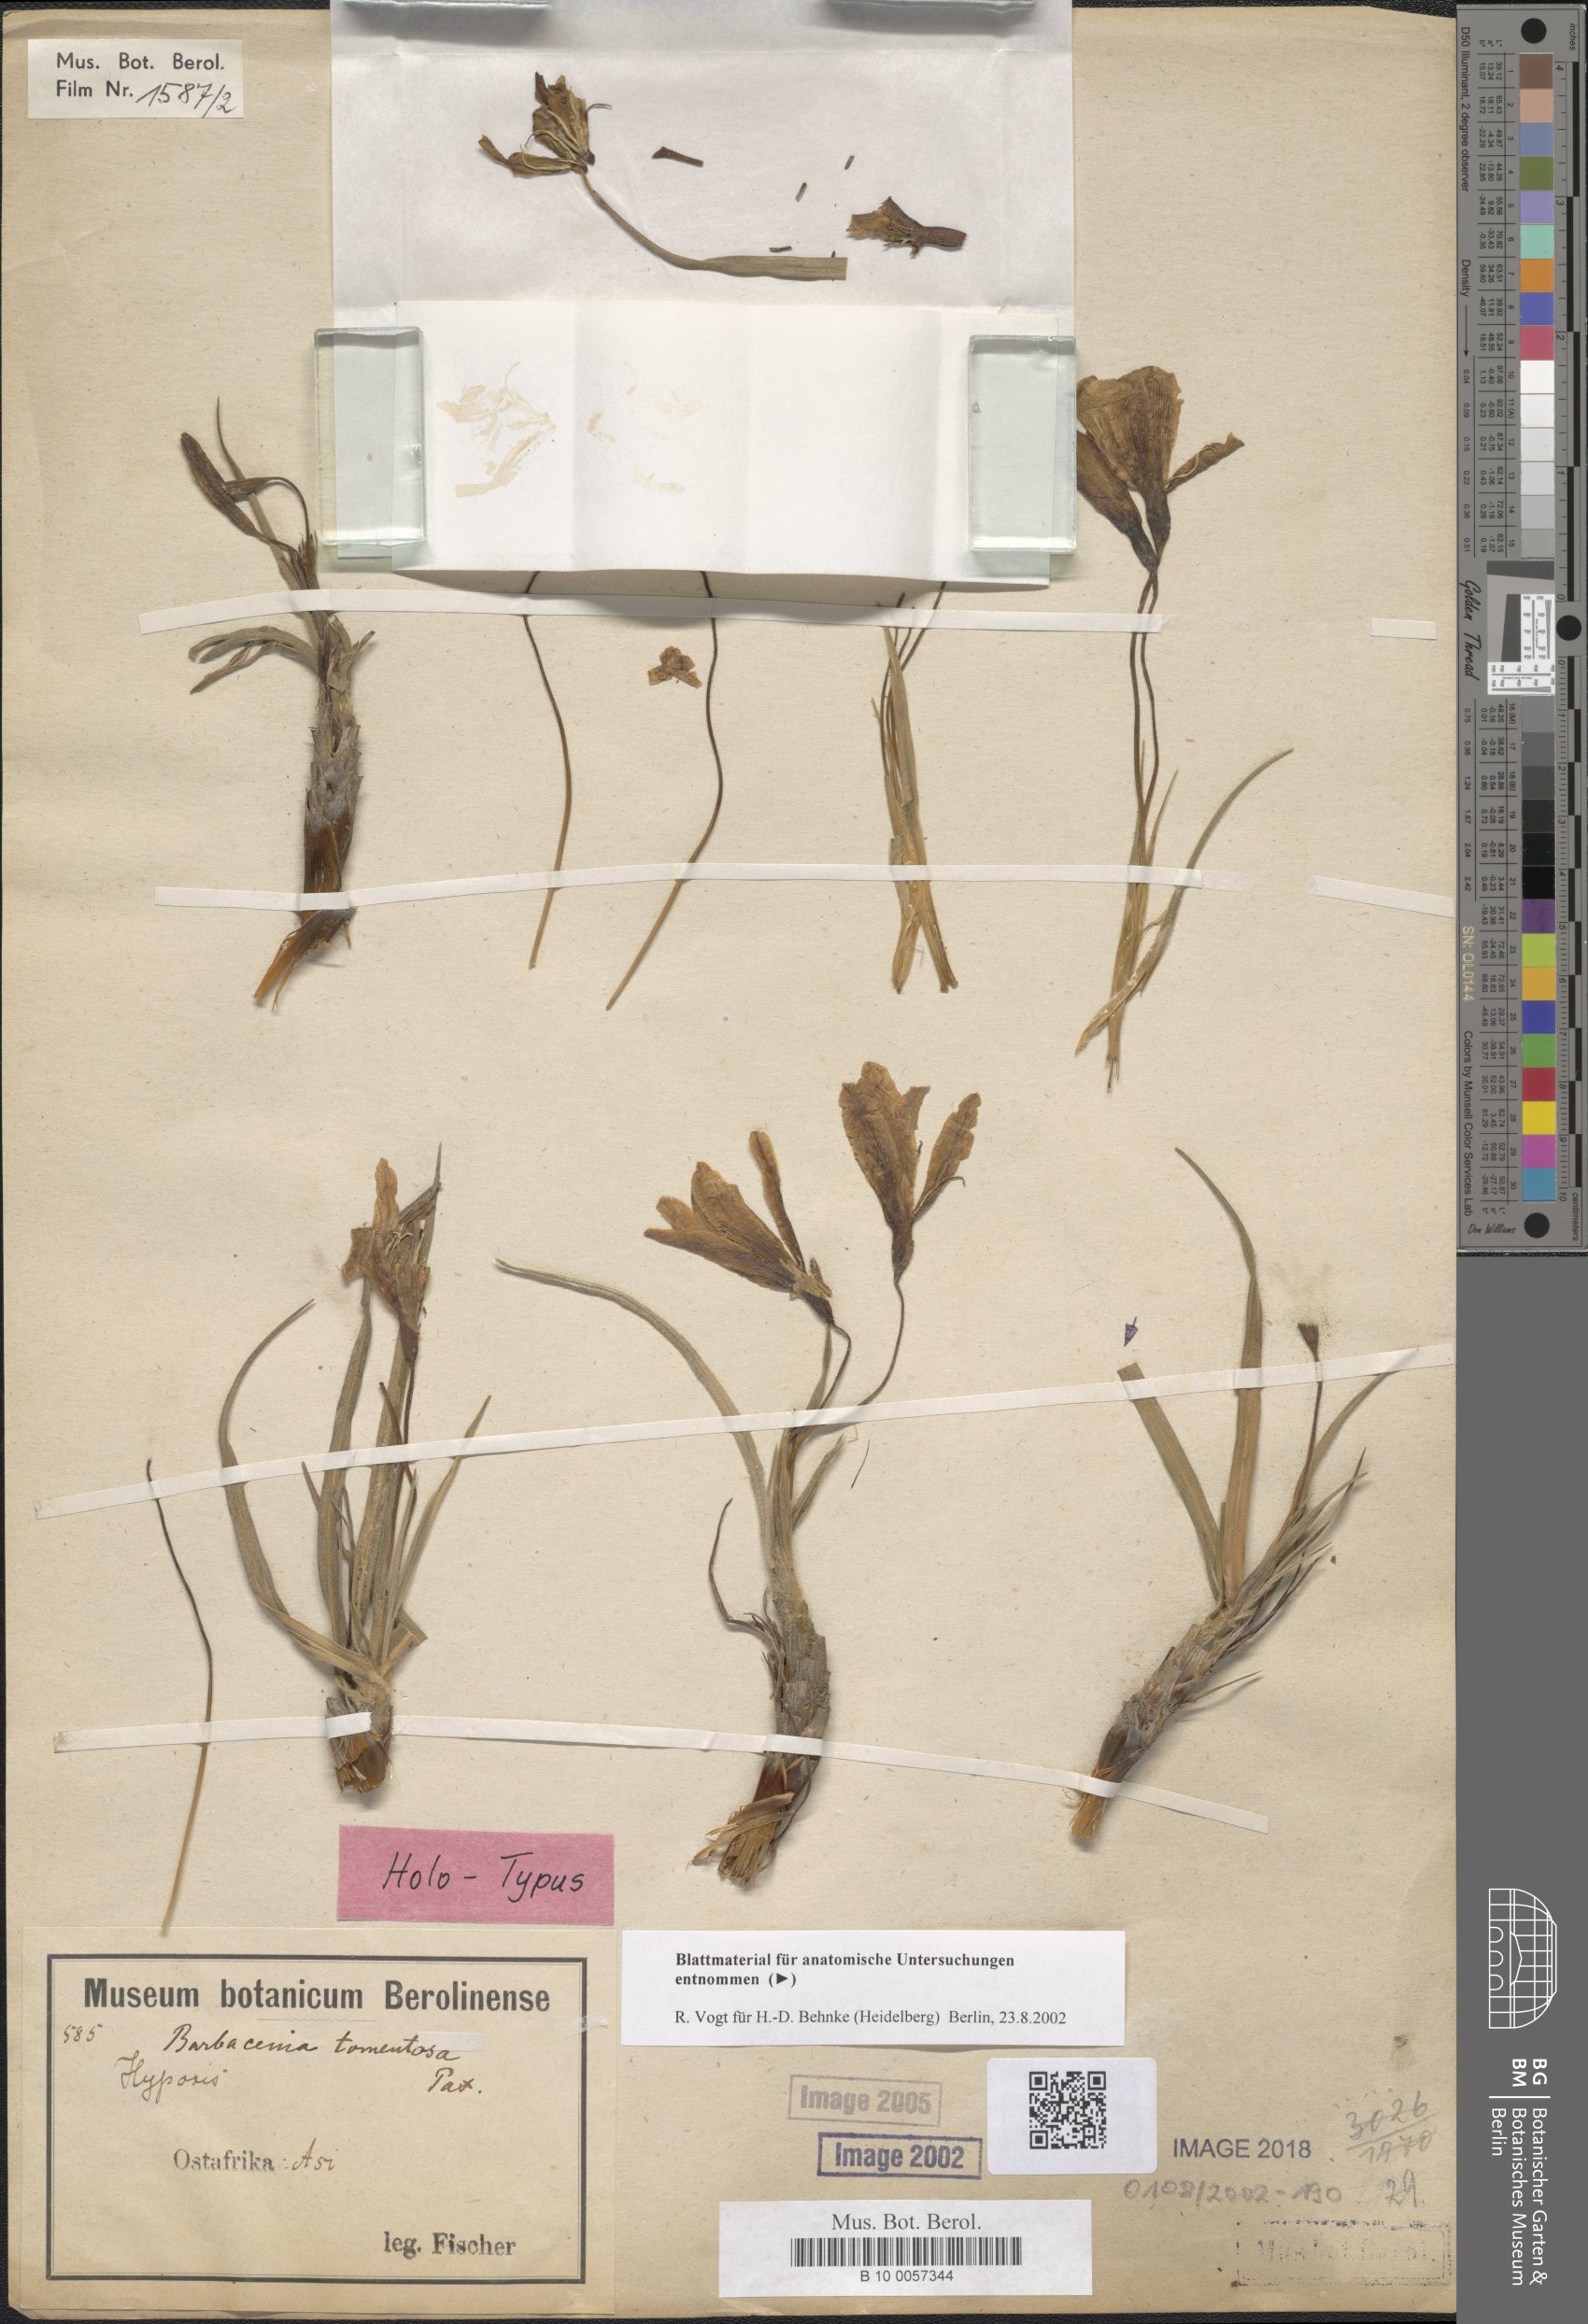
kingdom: Plantae
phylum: Tracheophyta
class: Liliopsida
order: Pandanales
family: Velloziaceae
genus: Xerophyta
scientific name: Xerophyta spekei
